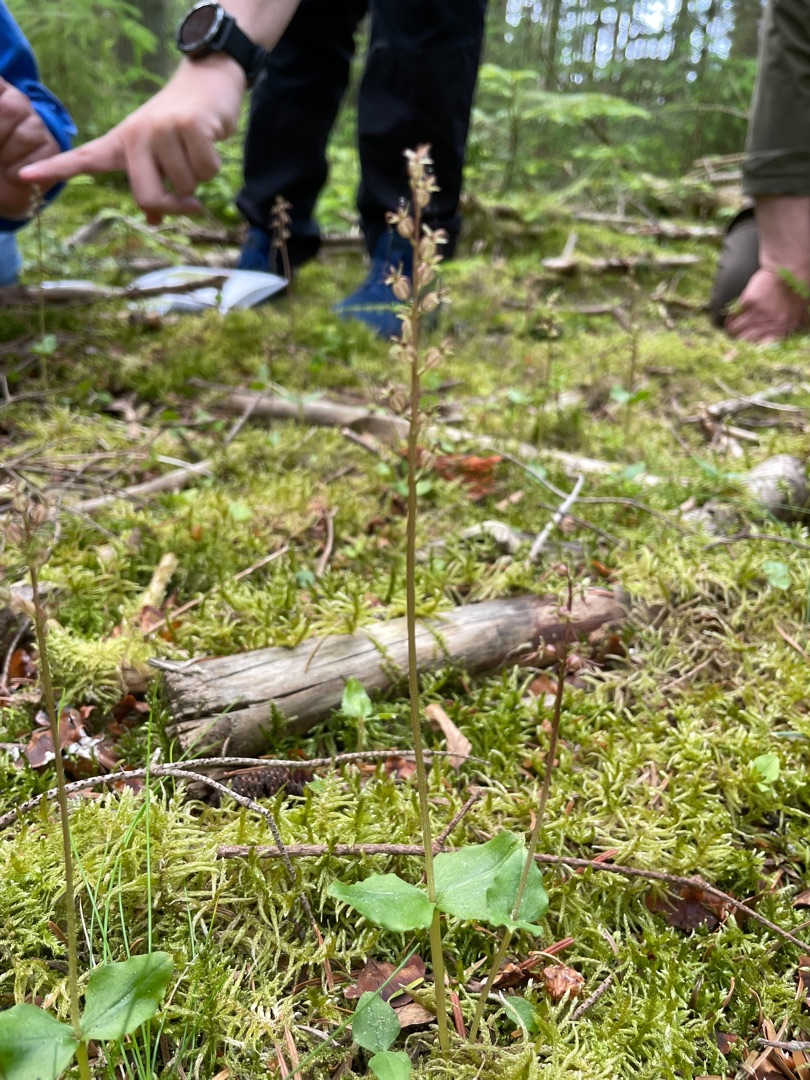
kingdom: Plantae
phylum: Tracheophyta
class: Liliopsida
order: Asparagales
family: Orchidaceae
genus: Neottia
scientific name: Neottia cordata
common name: Hjertebladet fliglæbe
